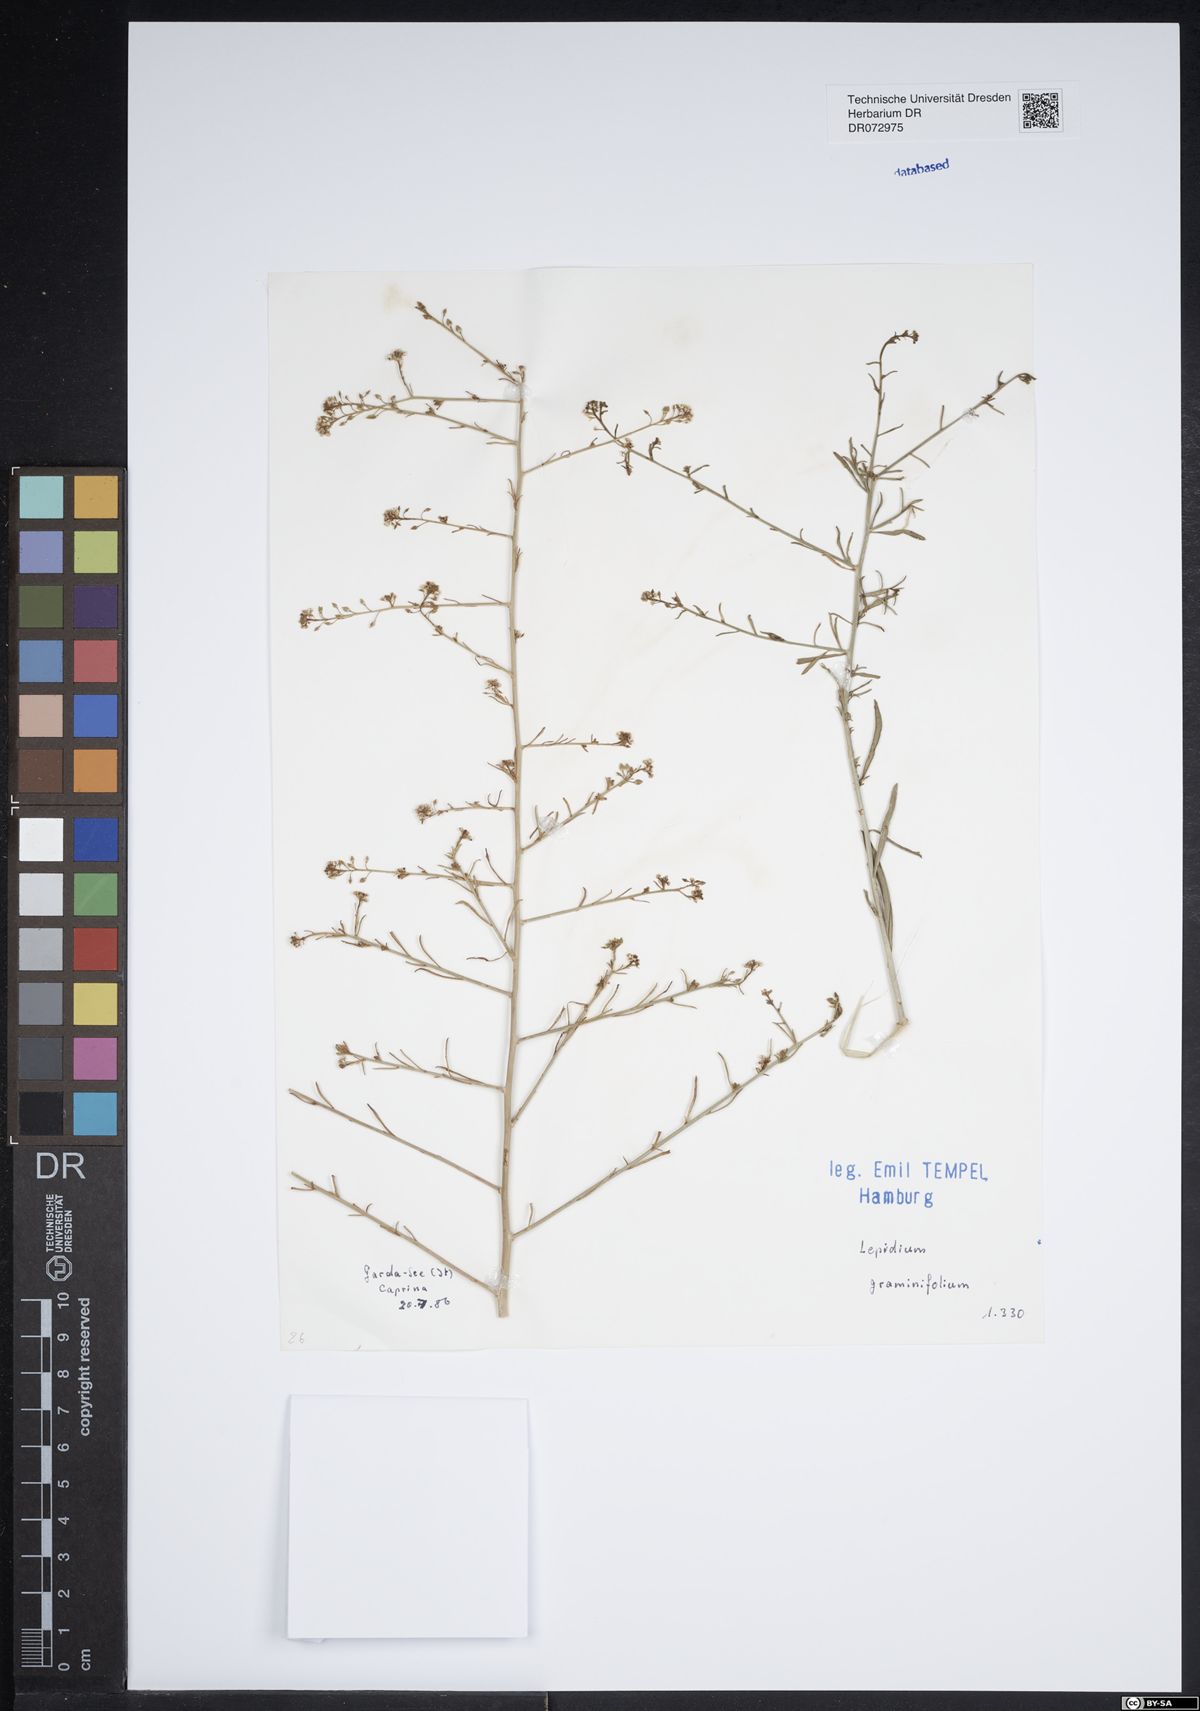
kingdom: Plantae
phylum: Tracheophyta
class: Magnoliopsida
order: Brassicales
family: Brassicaceae
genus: Lepidium
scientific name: Lepidium graminifolium
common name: Tall pepperwort
